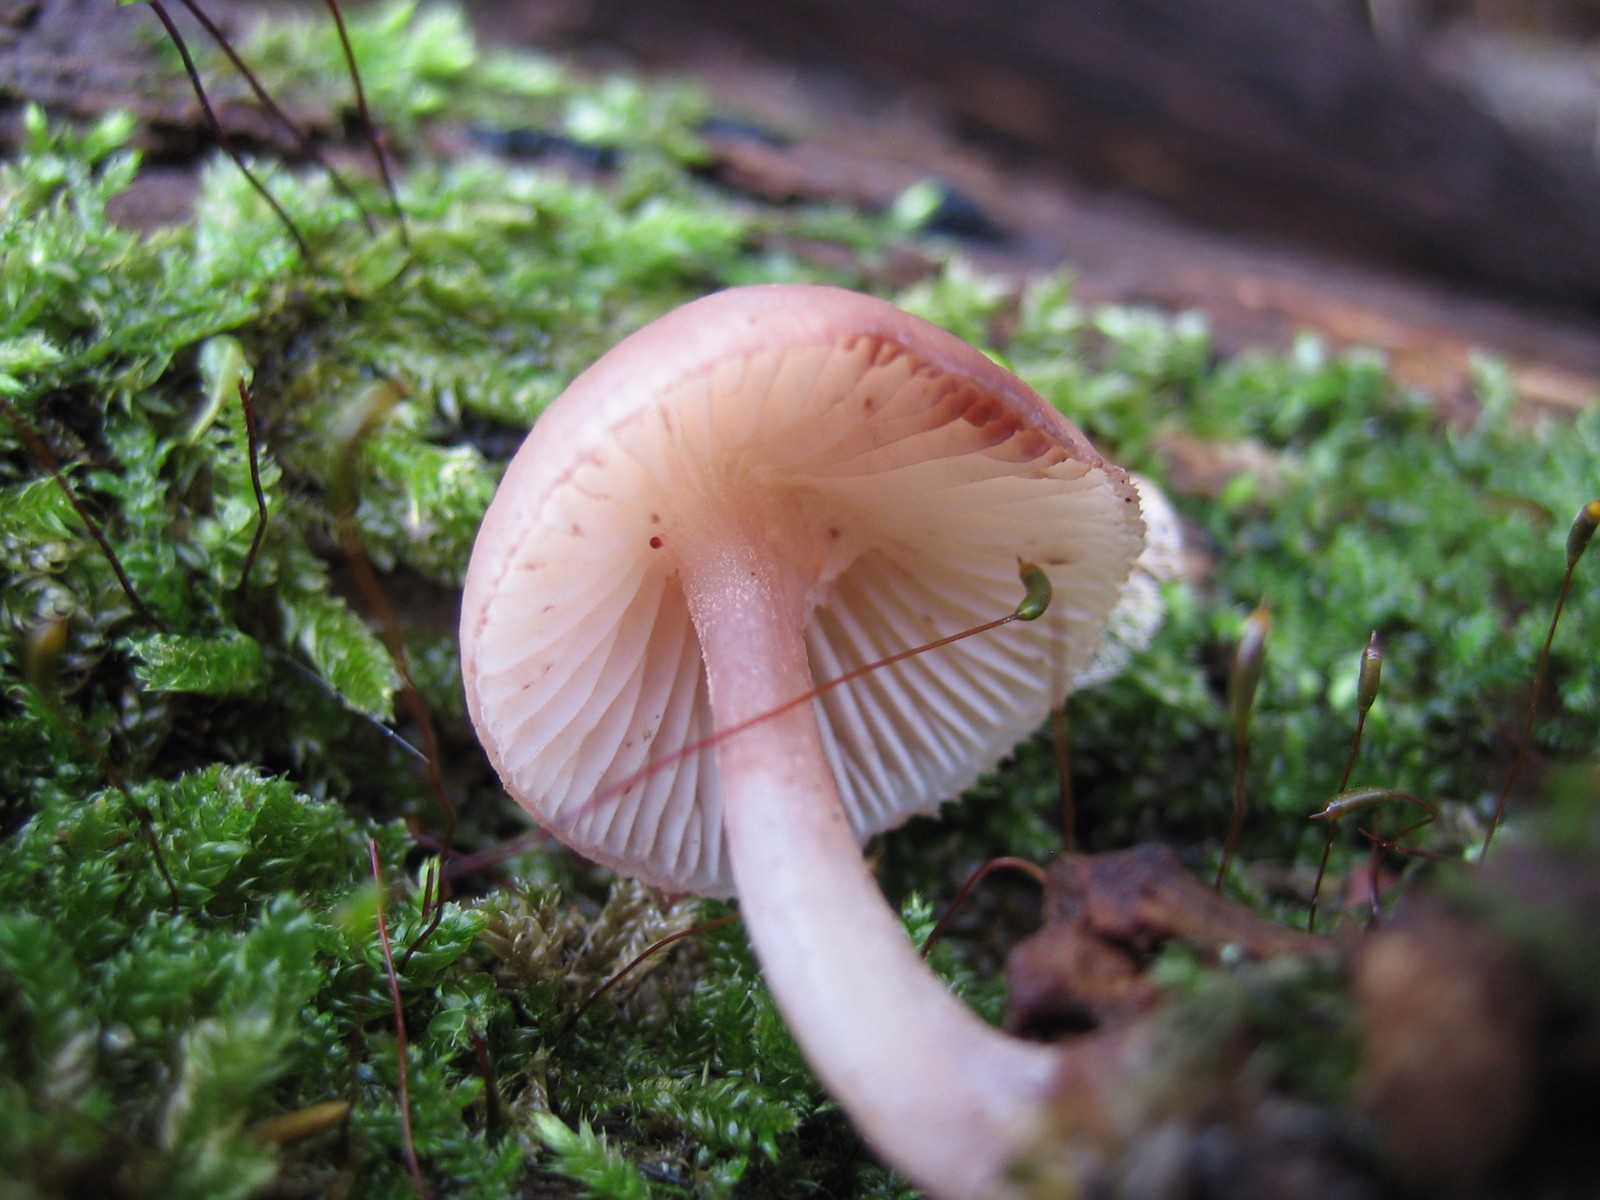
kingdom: Fungi
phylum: Basidiomycota
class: Agaricomycetes
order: Agaricales
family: Mycenaceae
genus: Mycena
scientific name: Mycena rosea
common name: rosa huesvamp
